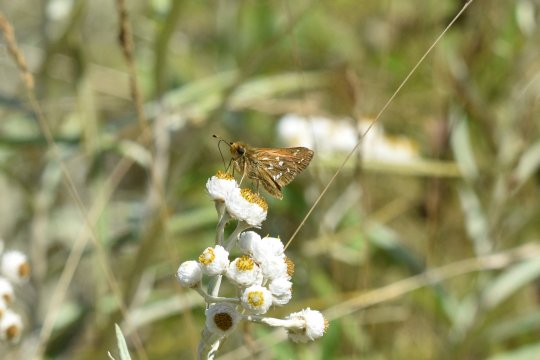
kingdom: Animalia
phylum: Arthropoda
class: Insecta
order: Lepidoptera
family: Hesperiidae
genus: Hesperia
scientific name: Hesperia comma
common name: Common Branded Skipper
